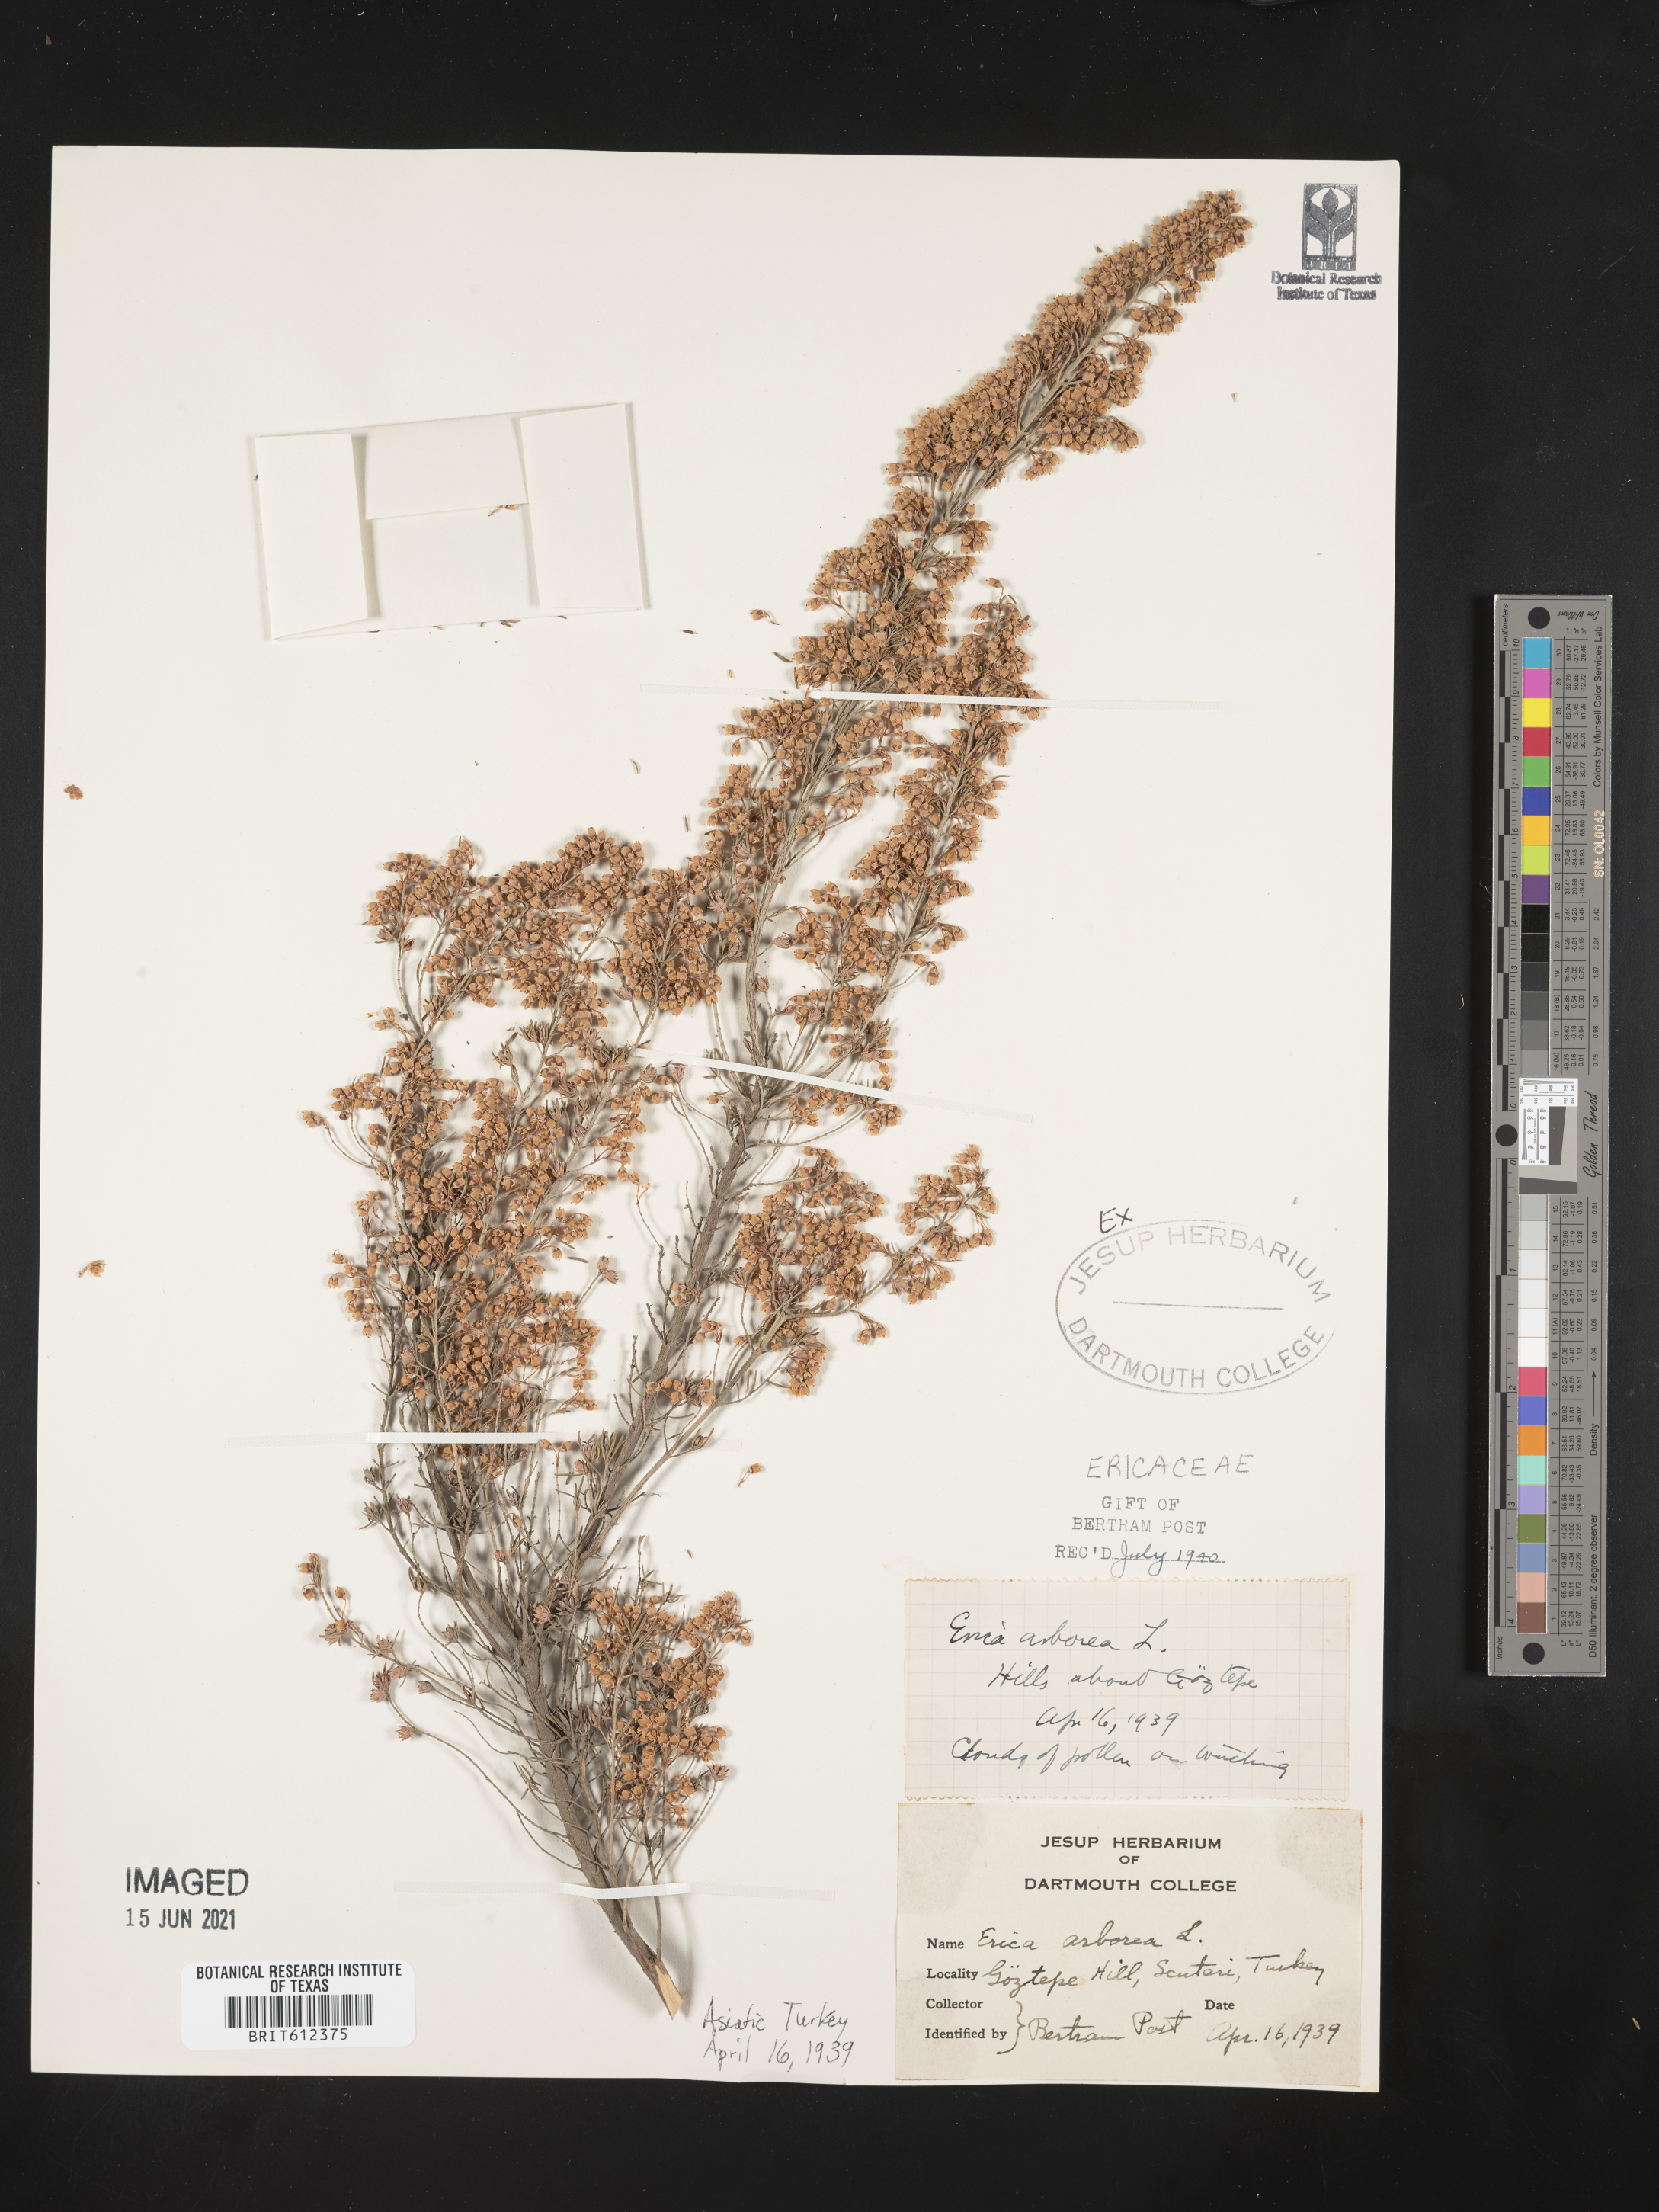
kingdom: Plantae
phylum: Tracheophyta
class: Magnoliopsida
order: Ericales
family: Ericaceae
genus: Erica
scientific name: Erica arborea
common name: Tree heath
